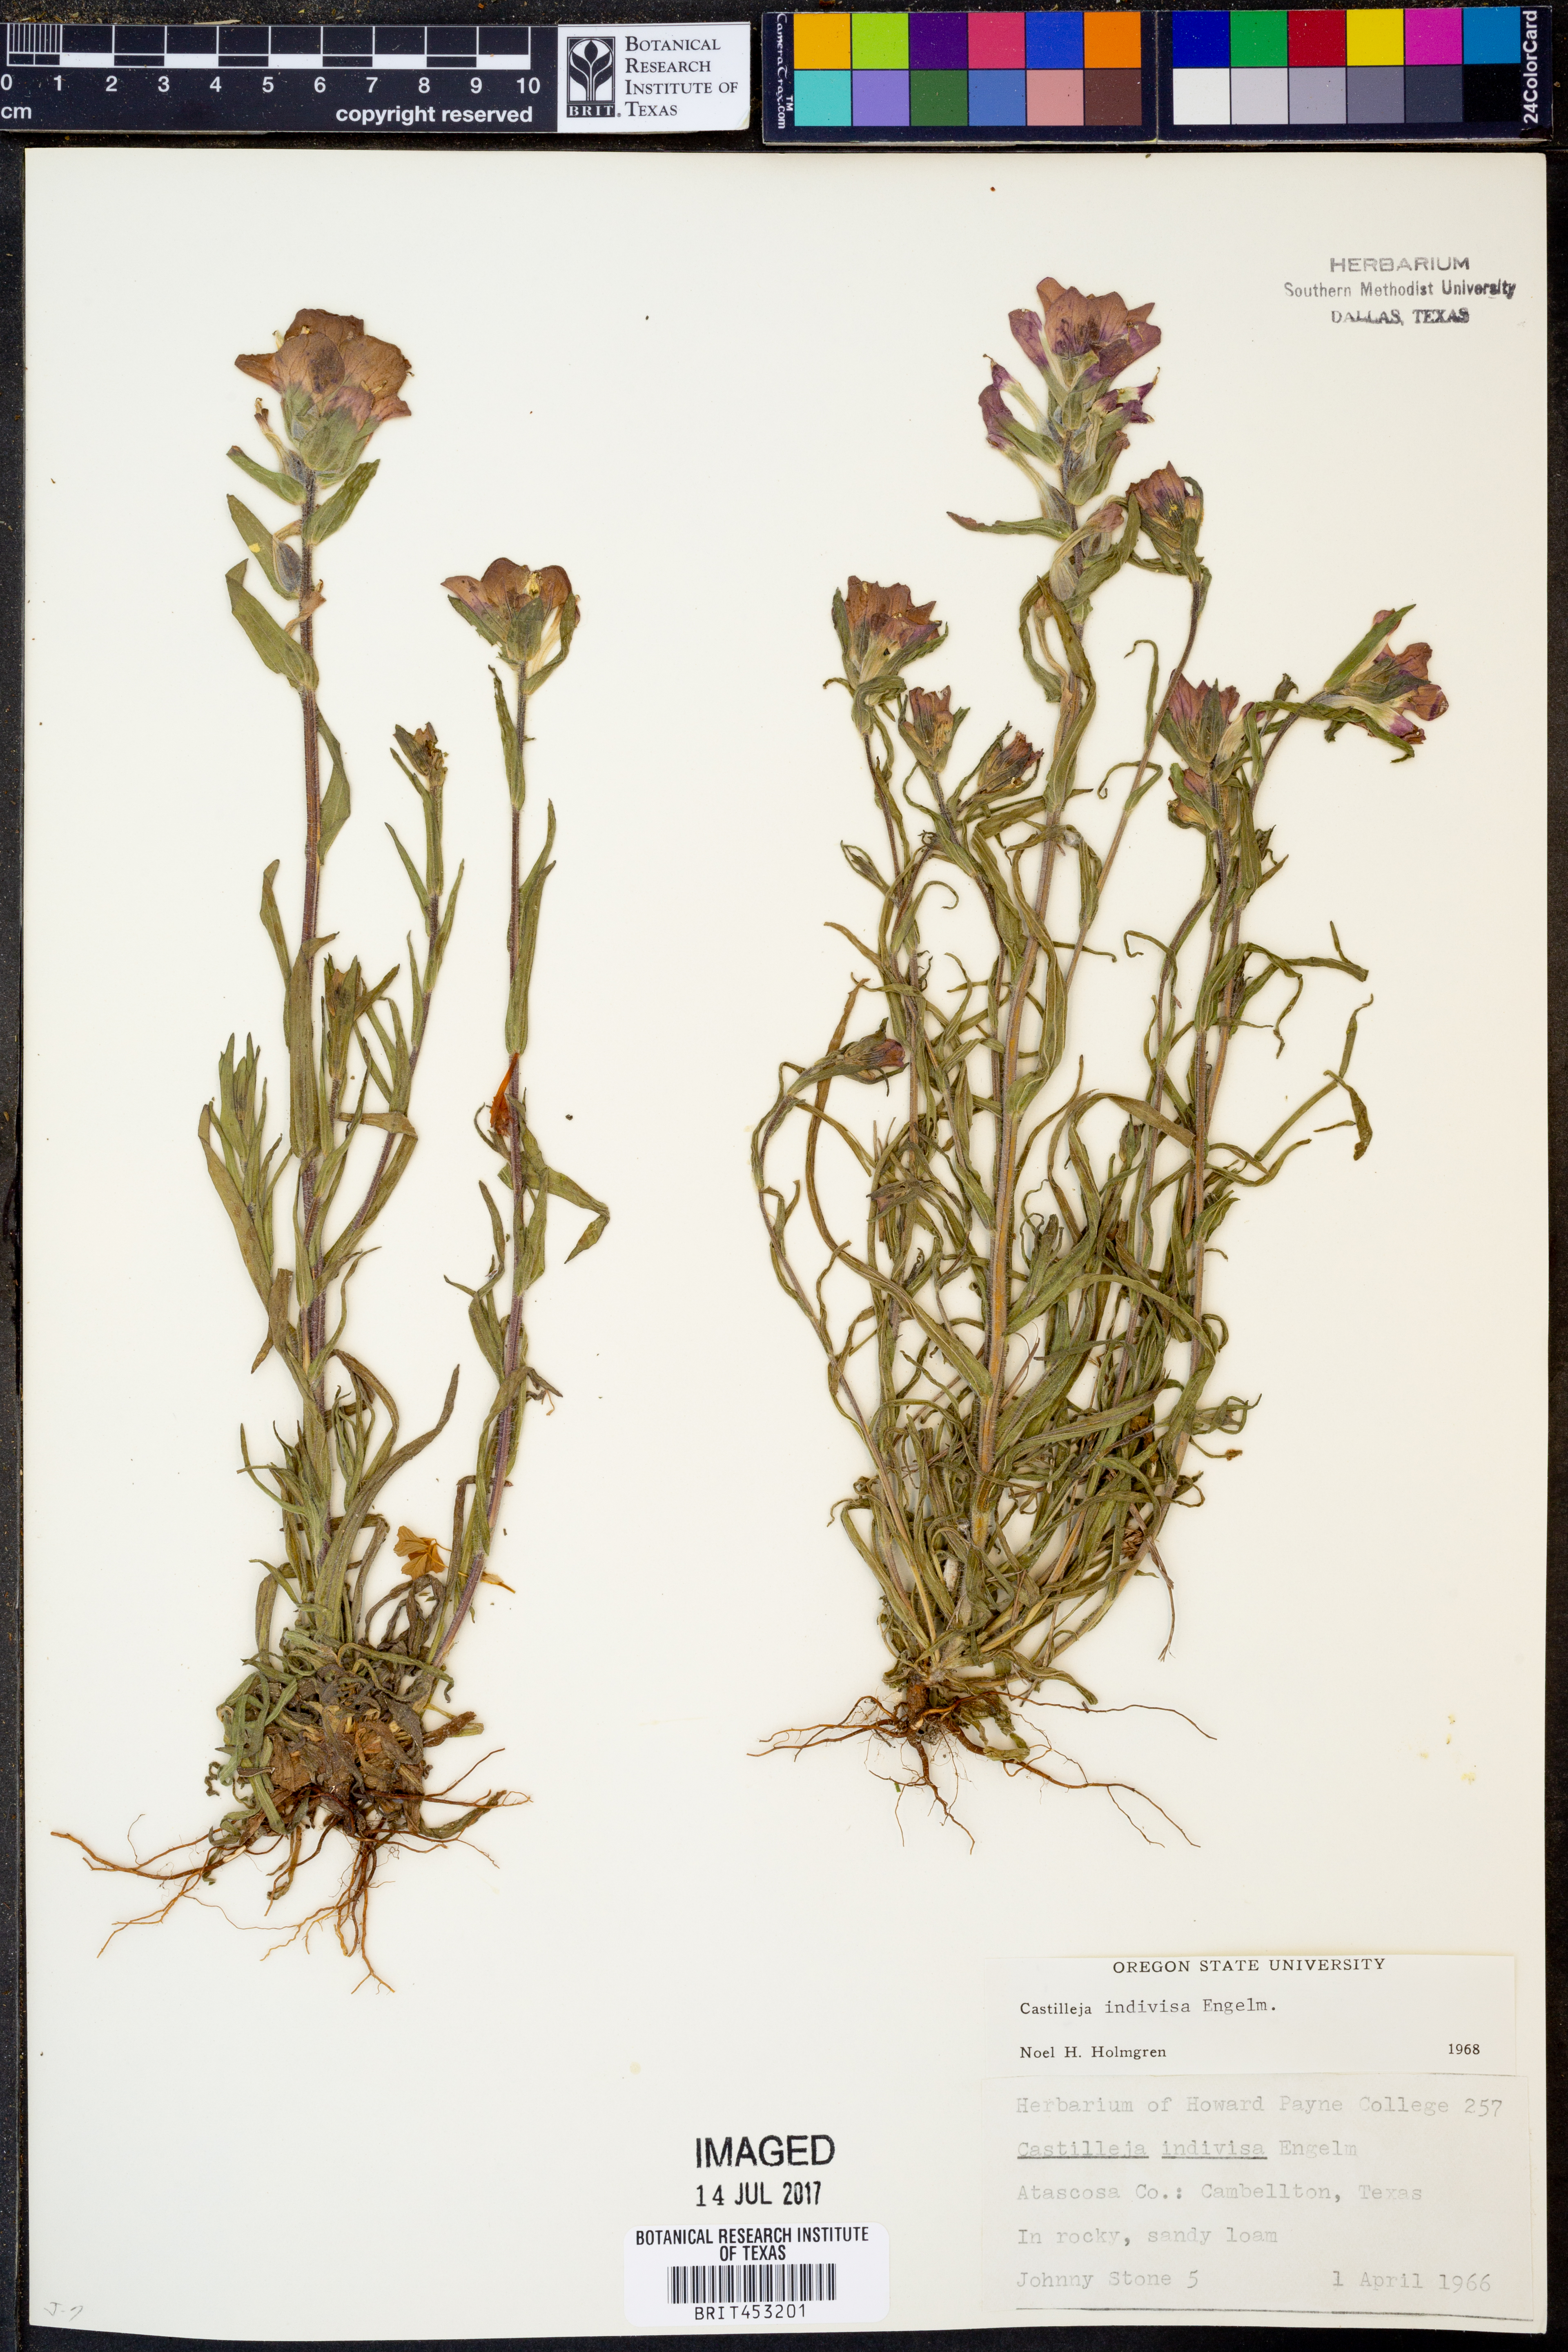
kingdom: Plantae
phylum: Tracheophyta
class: Magnoliopsida
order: Lamiales
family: Orobanchaceae
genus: Castilleja
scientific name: Castilleja indivisa
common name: Texas paintbrush
